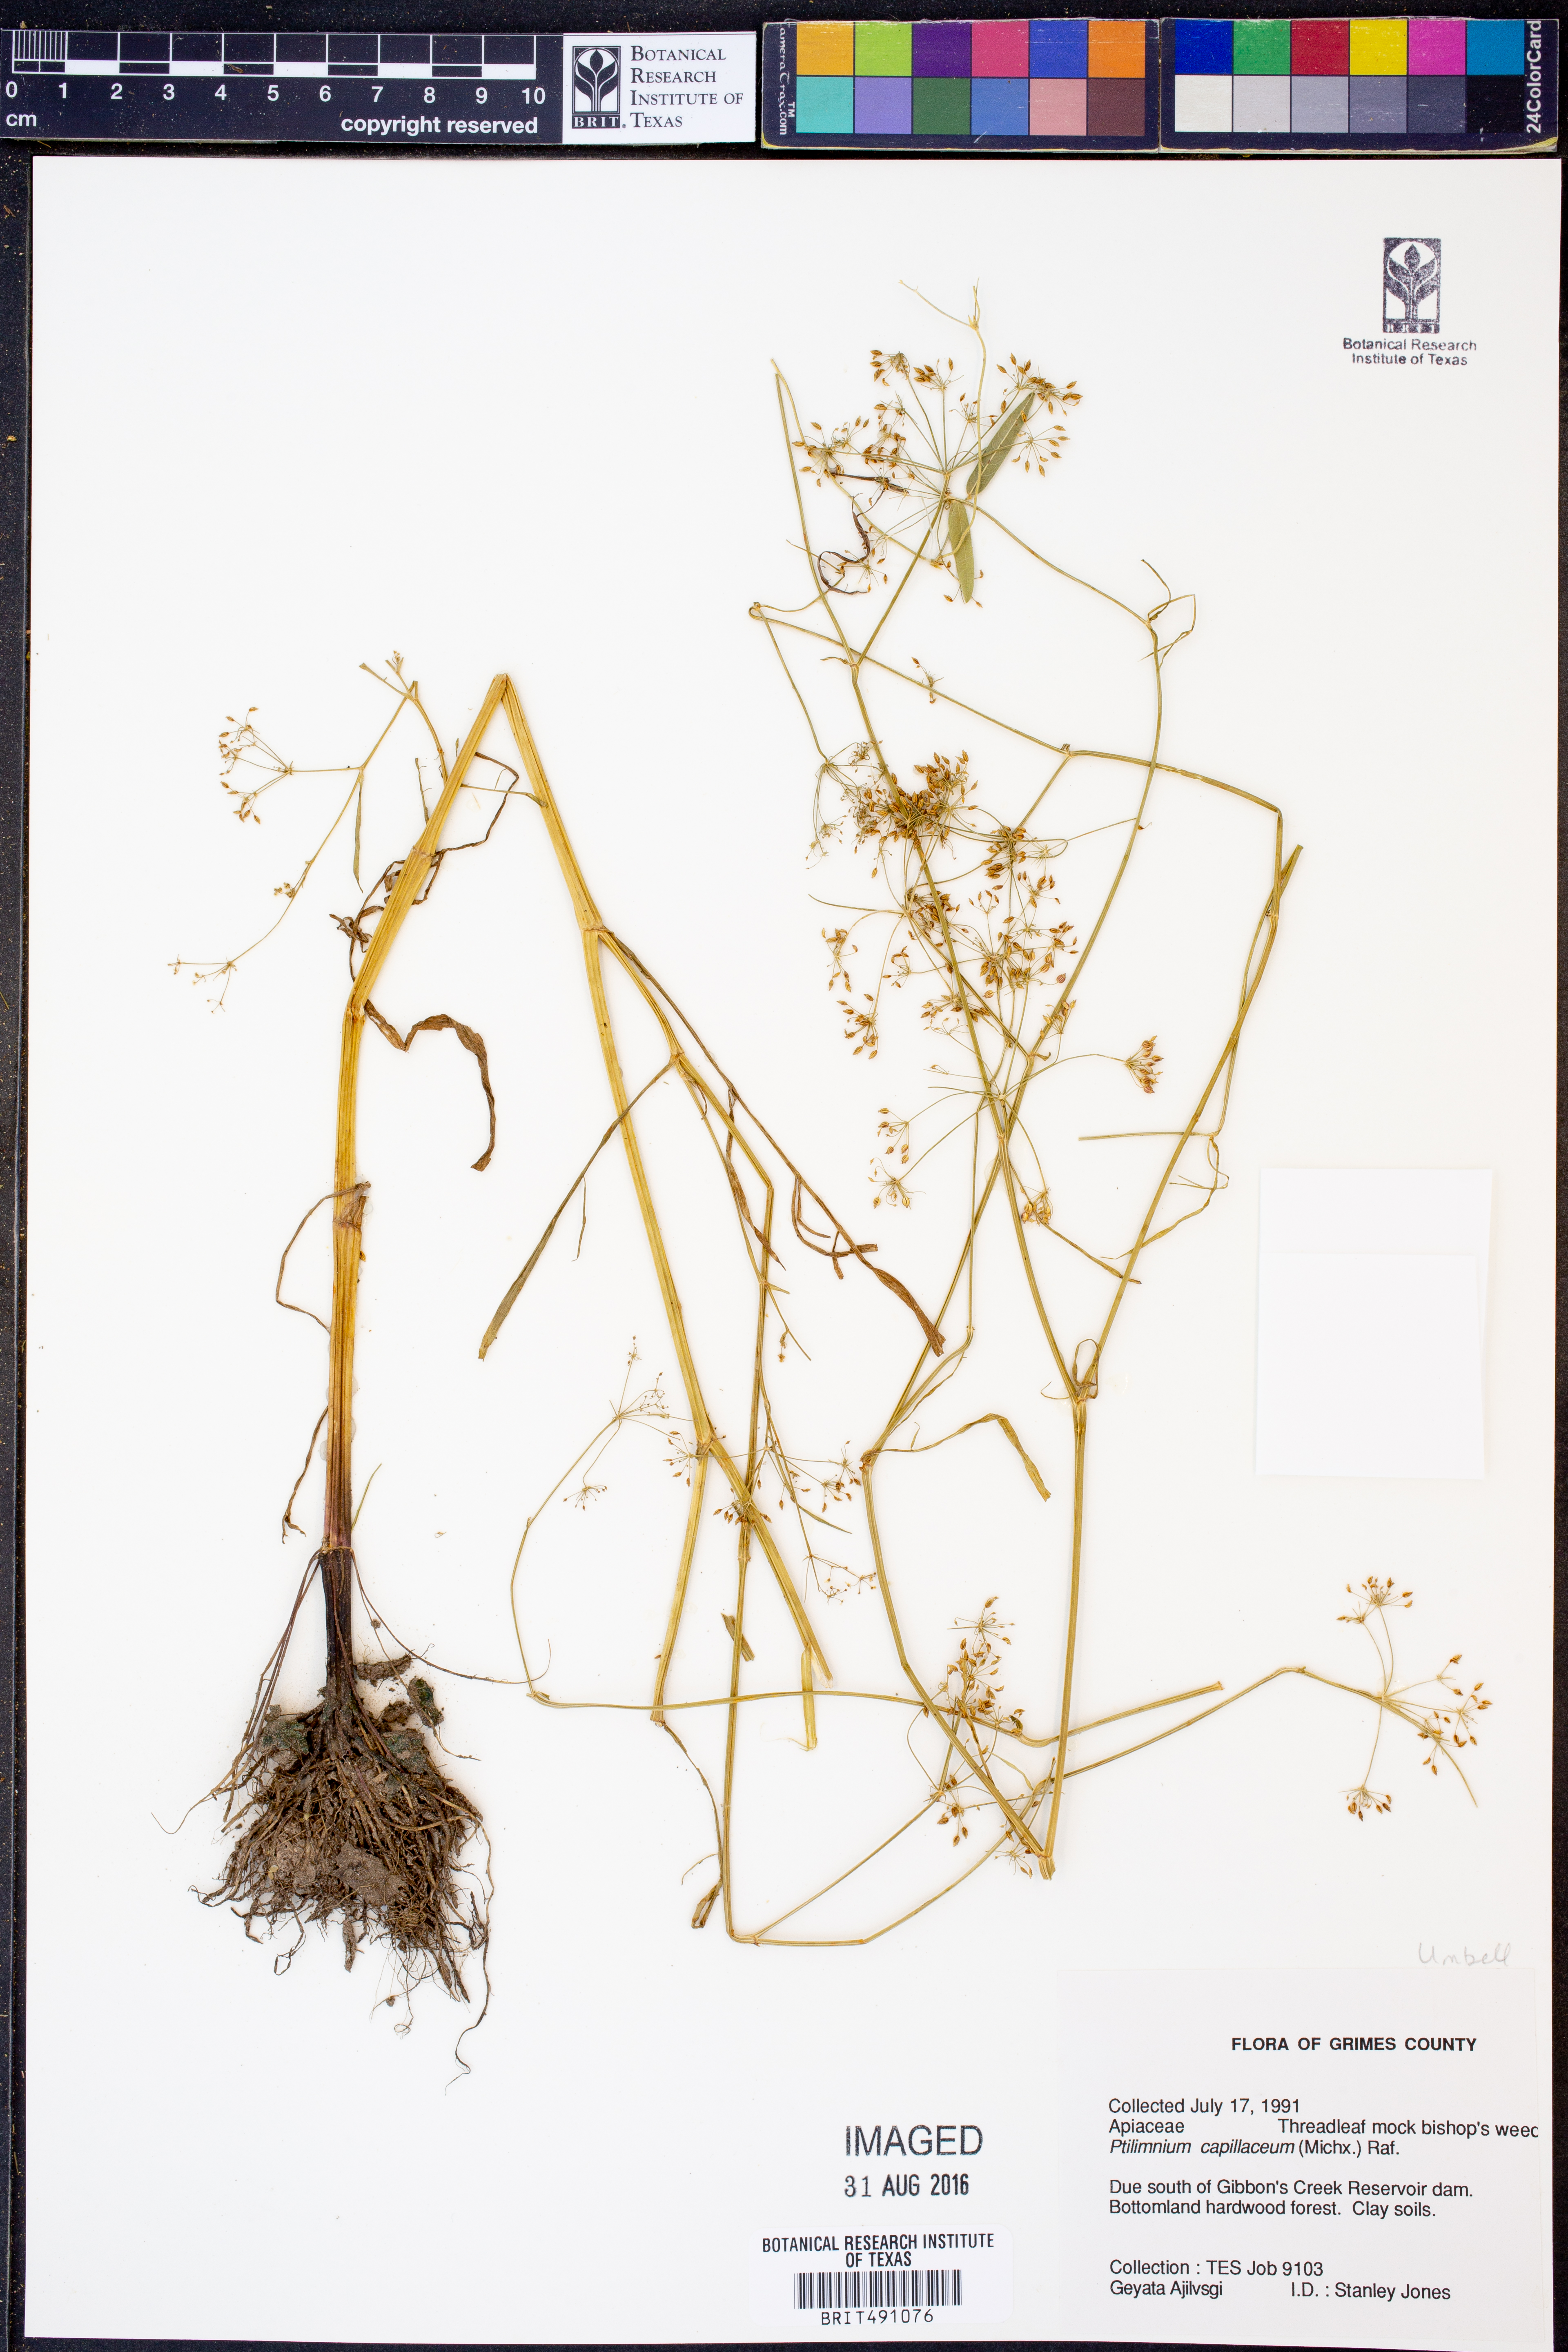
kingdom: Plantae
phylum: Tracheophyta
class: Magnoliopsida
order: Apiales
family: Apiaceae
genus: Ptilimnium
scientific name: Ptilimnium capillaceum
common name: Herbwilliam
